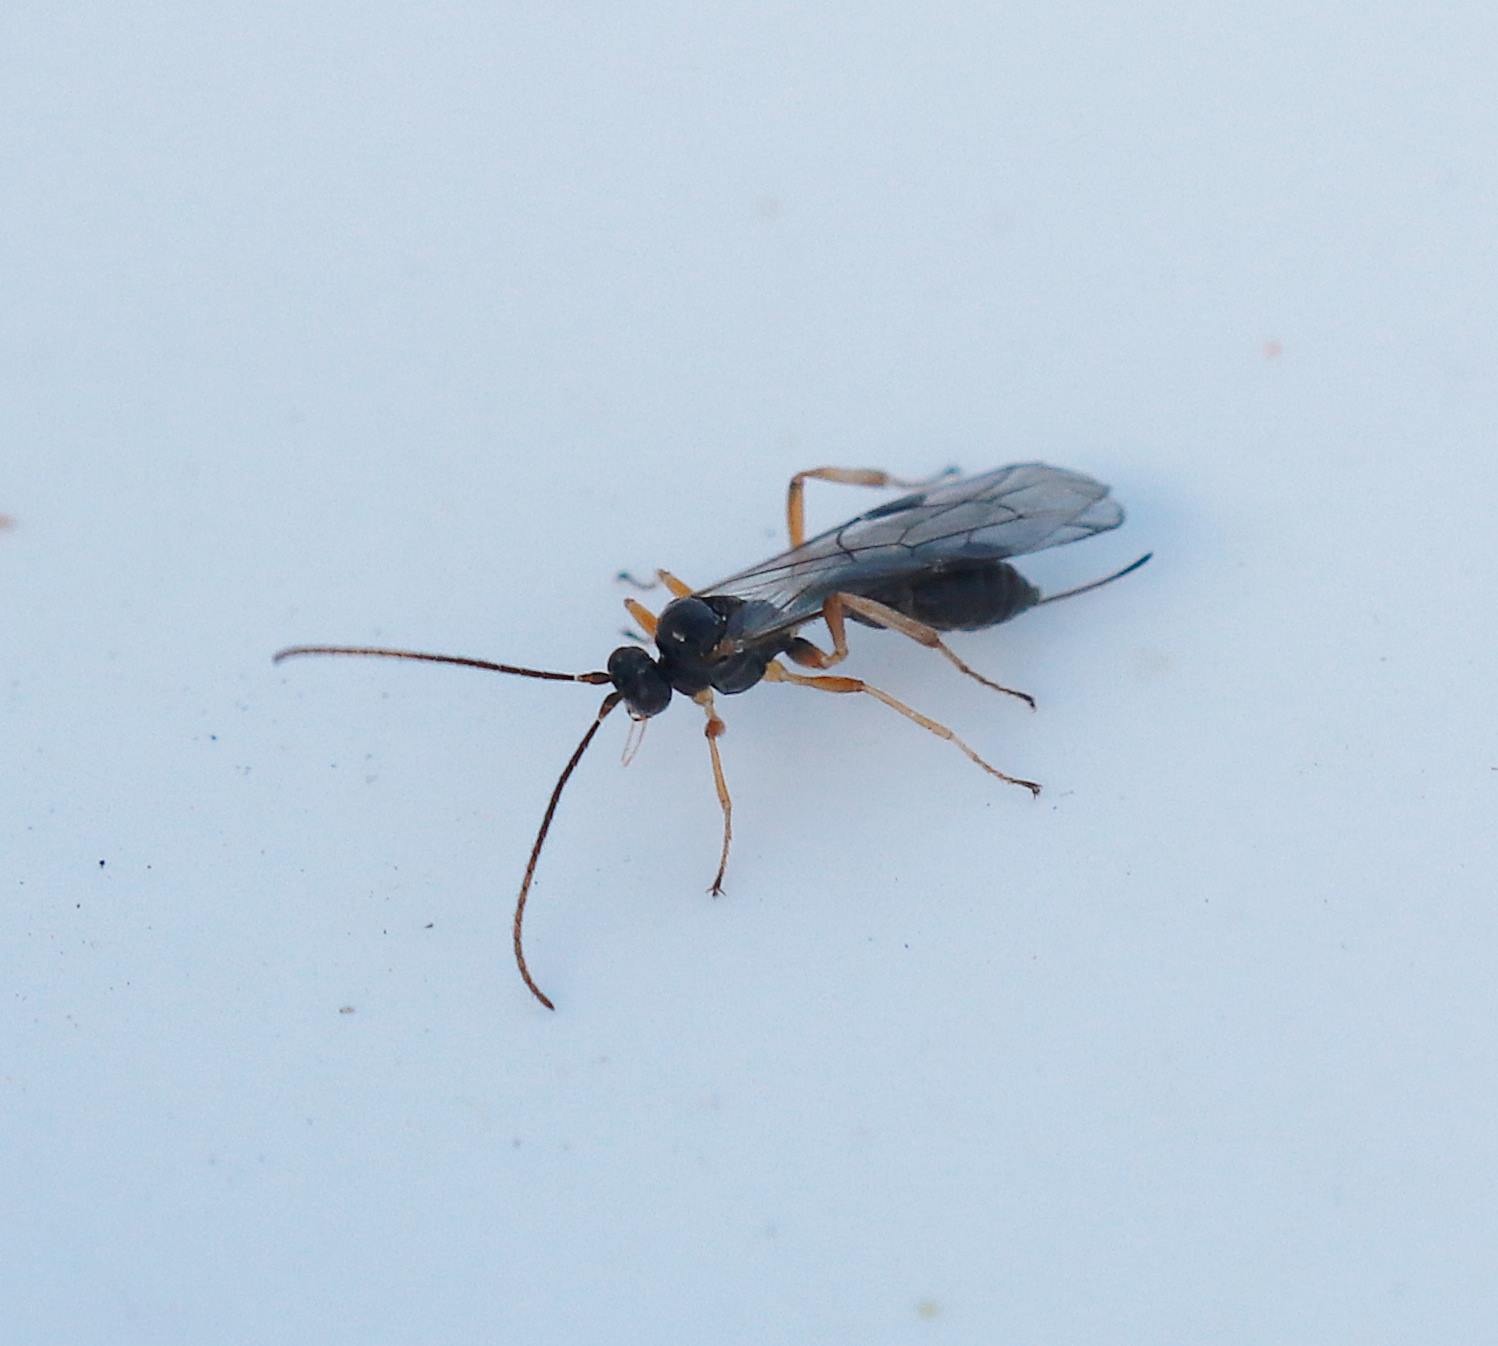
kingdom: Animalia
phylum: Arthropoda
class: Insecta
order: Hymenoptera
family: Ichneumonidae
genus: Proclitus
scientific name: Proclitus paganus
